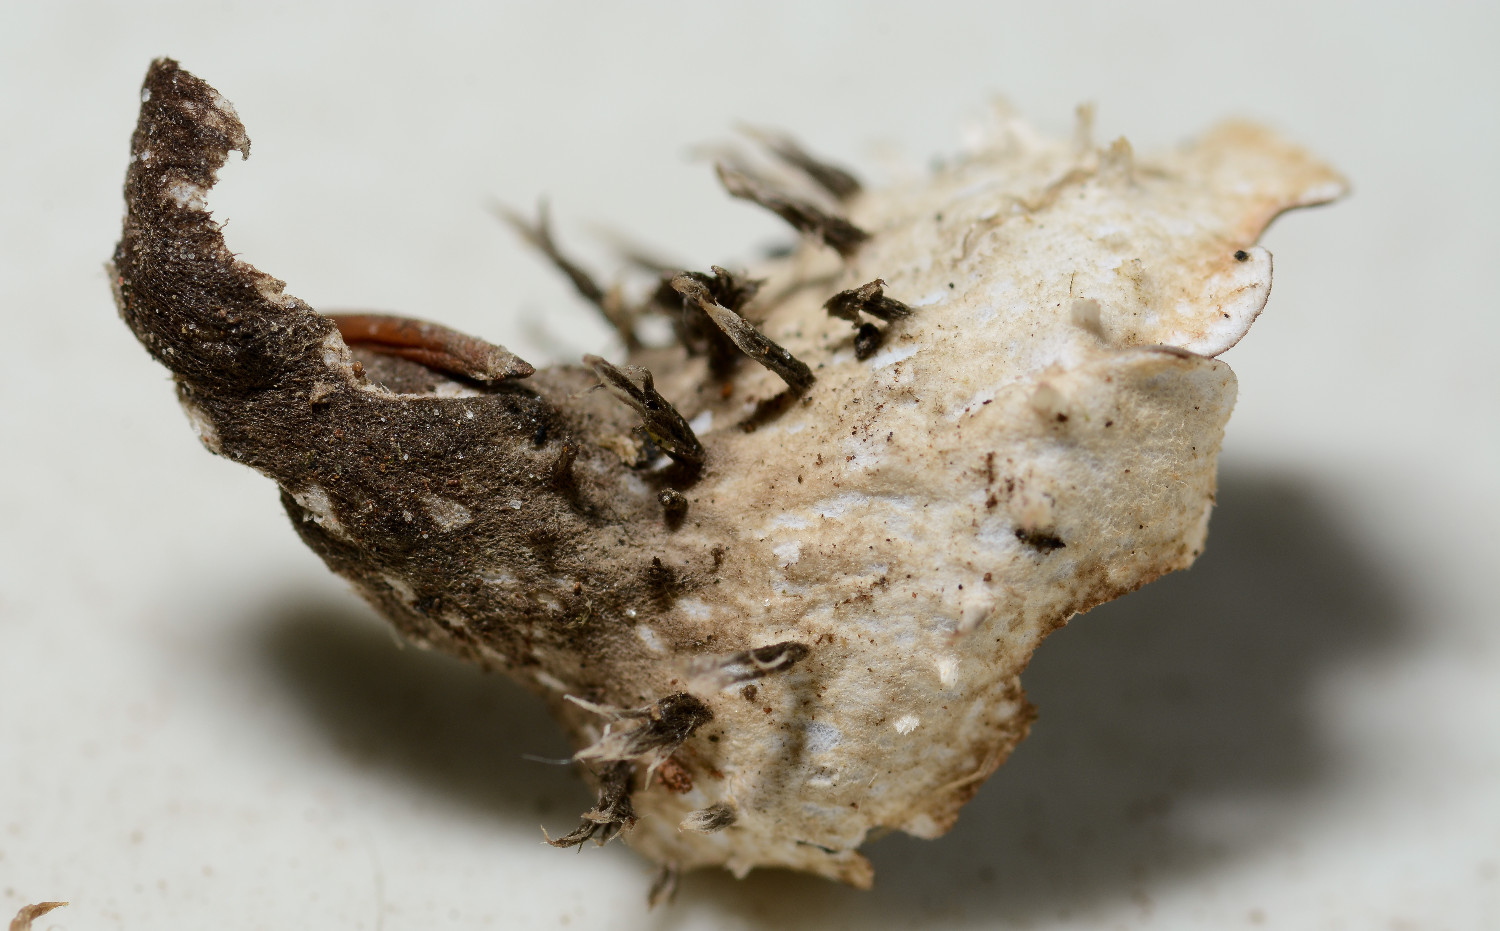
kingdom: Fungi
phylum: Ascomycota
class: Lecanoromycetes
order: Peltigerales
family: Peltigeraceae
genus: Peltigera
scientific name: Peltigera horizontalis
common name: blank skjoldlav
